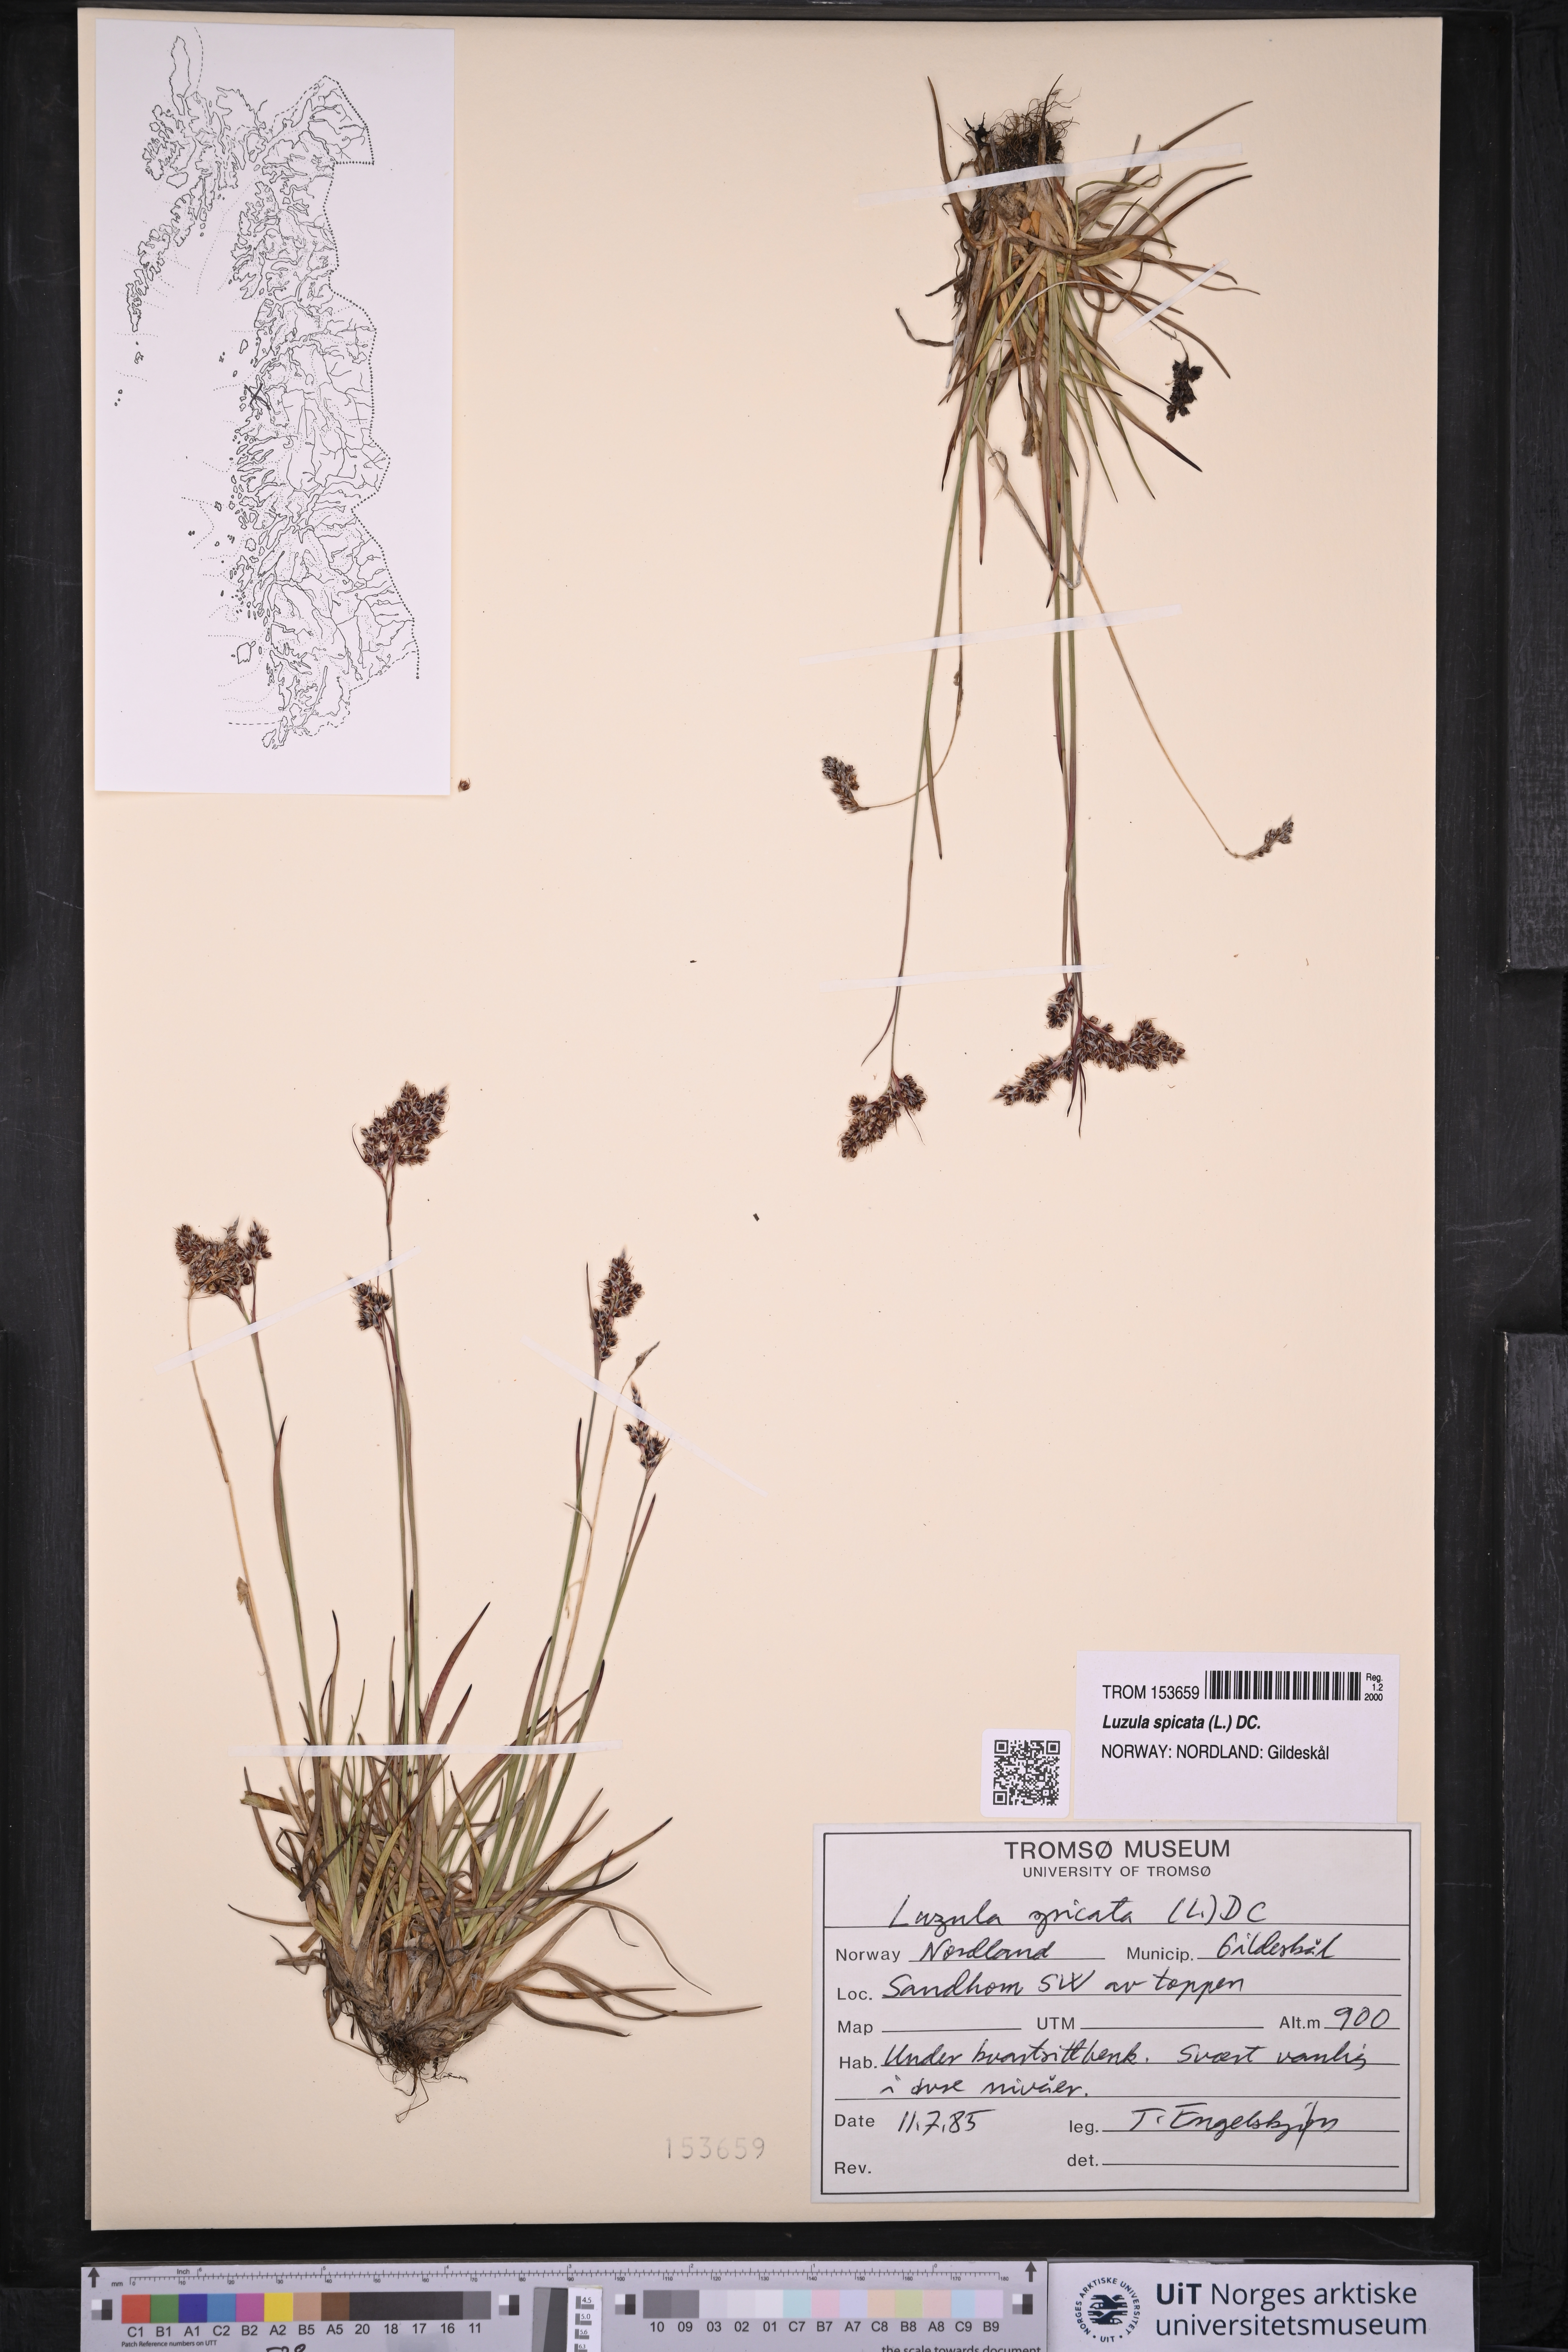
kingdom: Plantae
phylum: Tracheophyta
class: Liliopsida
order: Poales
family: Juncaceae
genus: Luzula
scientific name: Luzula spicata
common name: Spiked wood-rush
